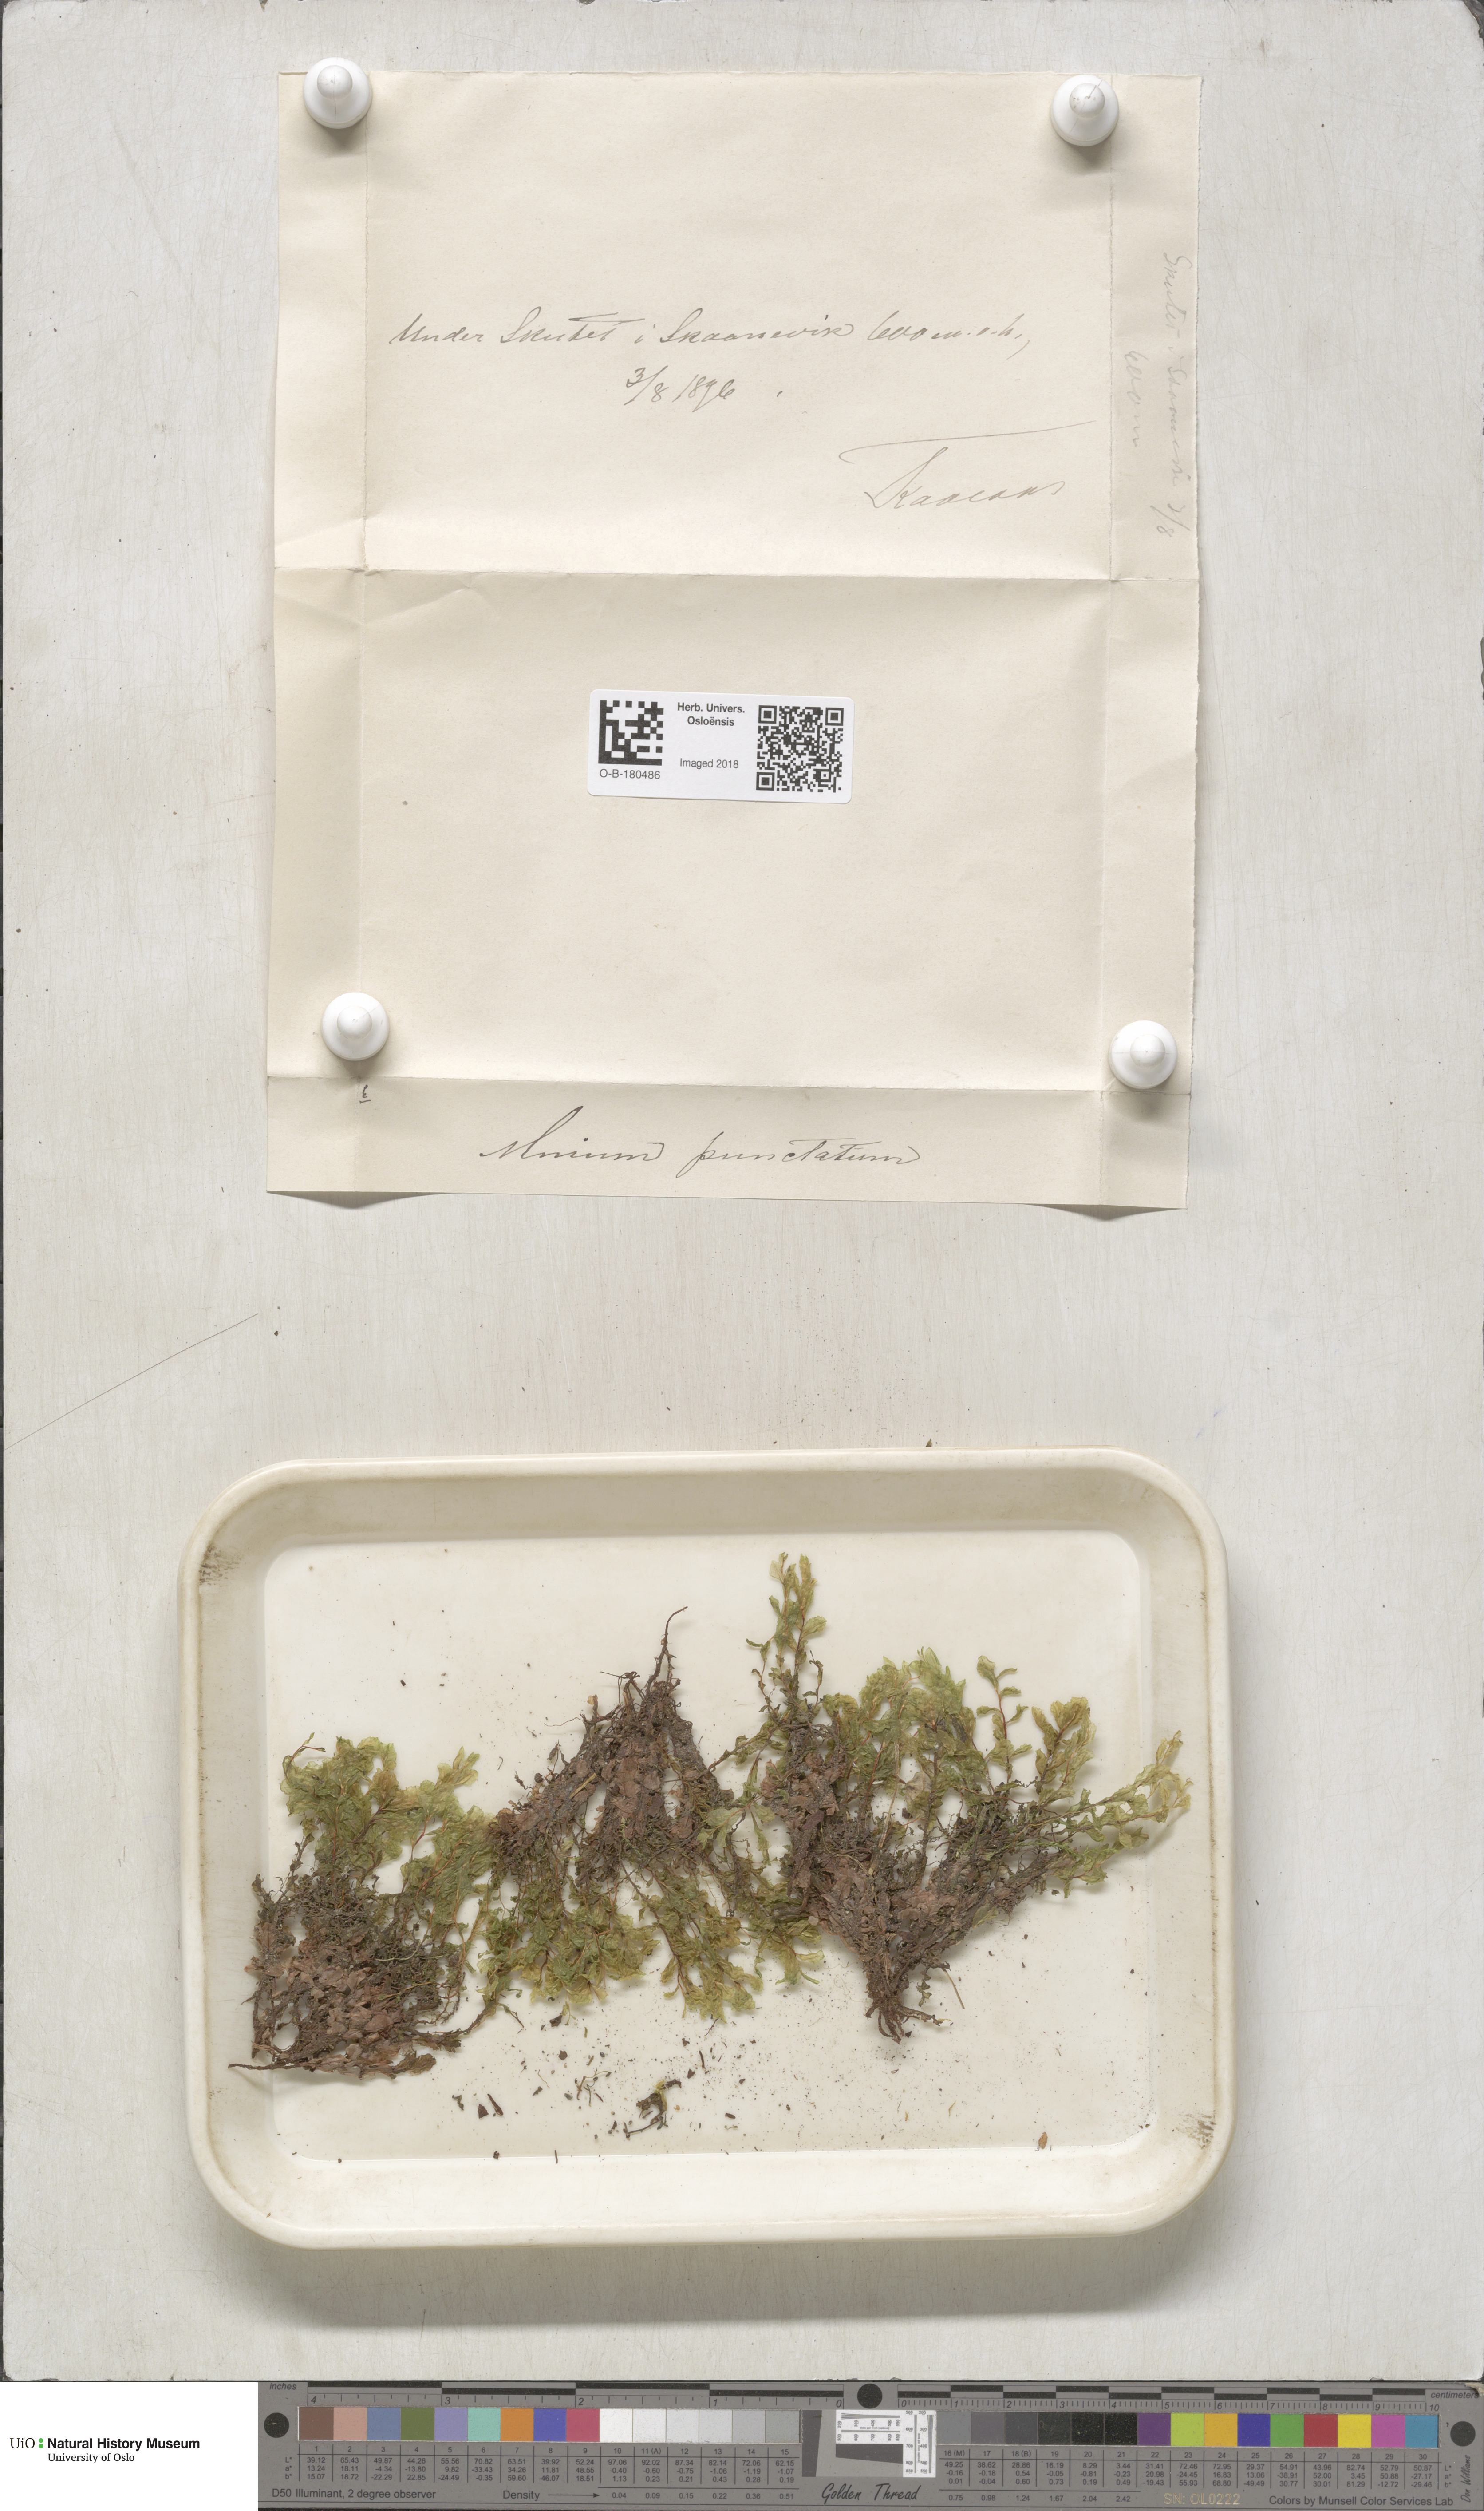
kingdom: Plantae
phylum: Bryophyta
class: Bryopsida
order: Bryales
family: Mniaceae
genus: Rhizomnium
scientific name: Rhizomnium punctatum
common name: Dotted leafy moss
